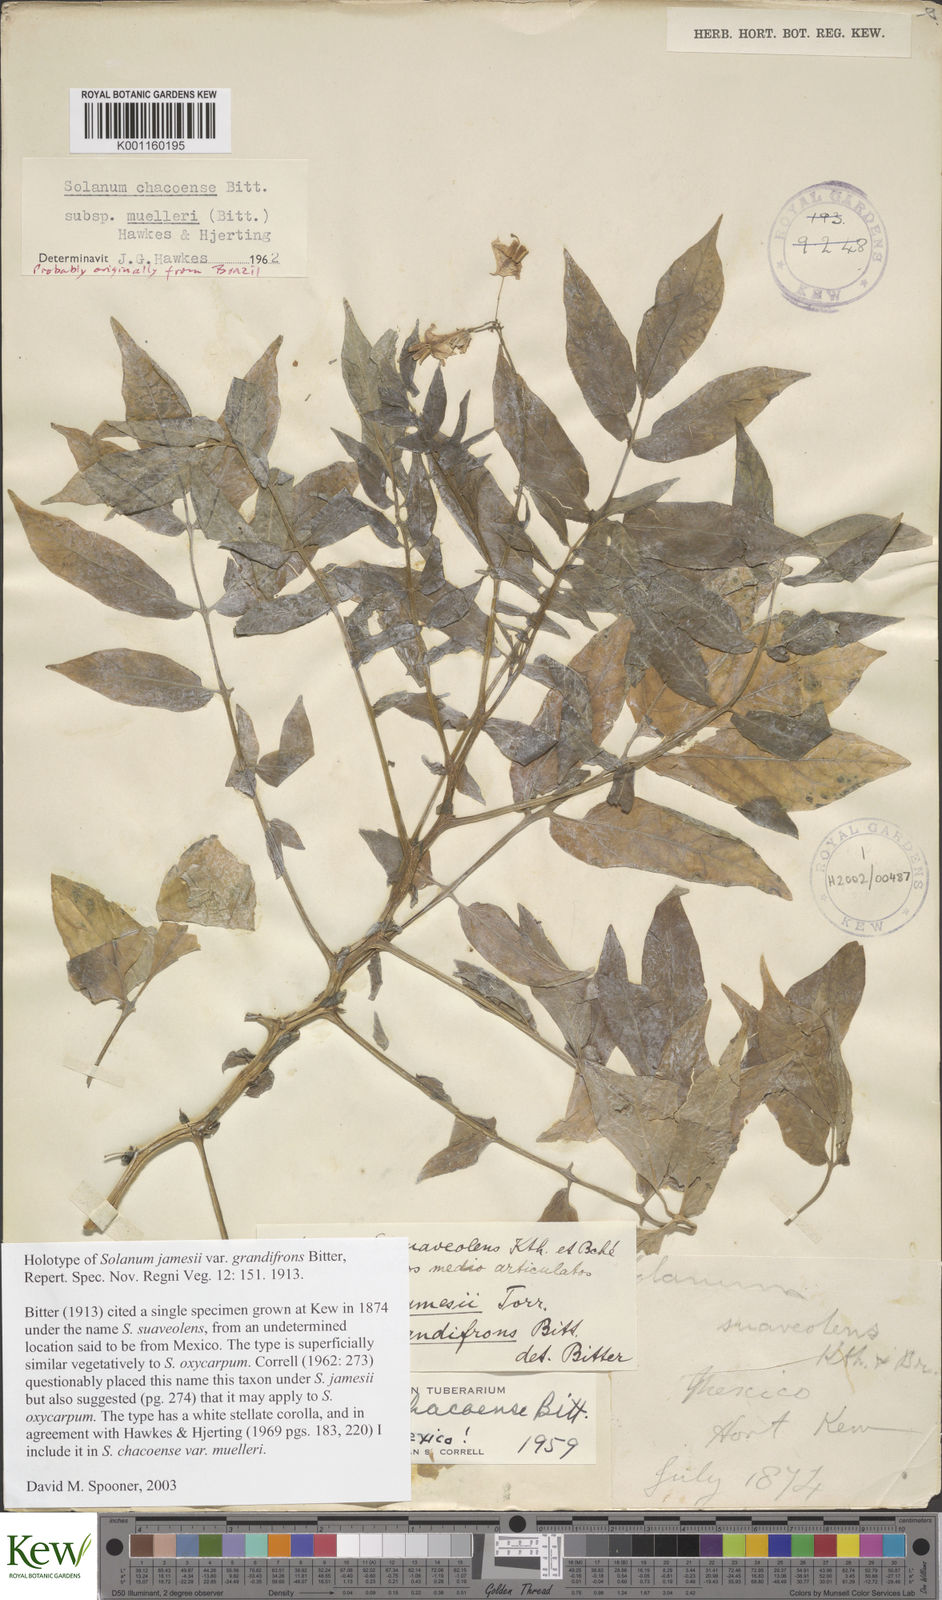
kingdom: Plantae
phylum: Tracheophyta
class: Magnoliopsida
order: Solanales
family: Solanaceae
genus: Solanum
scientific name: Solanum chacoense
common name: Chaco potato
